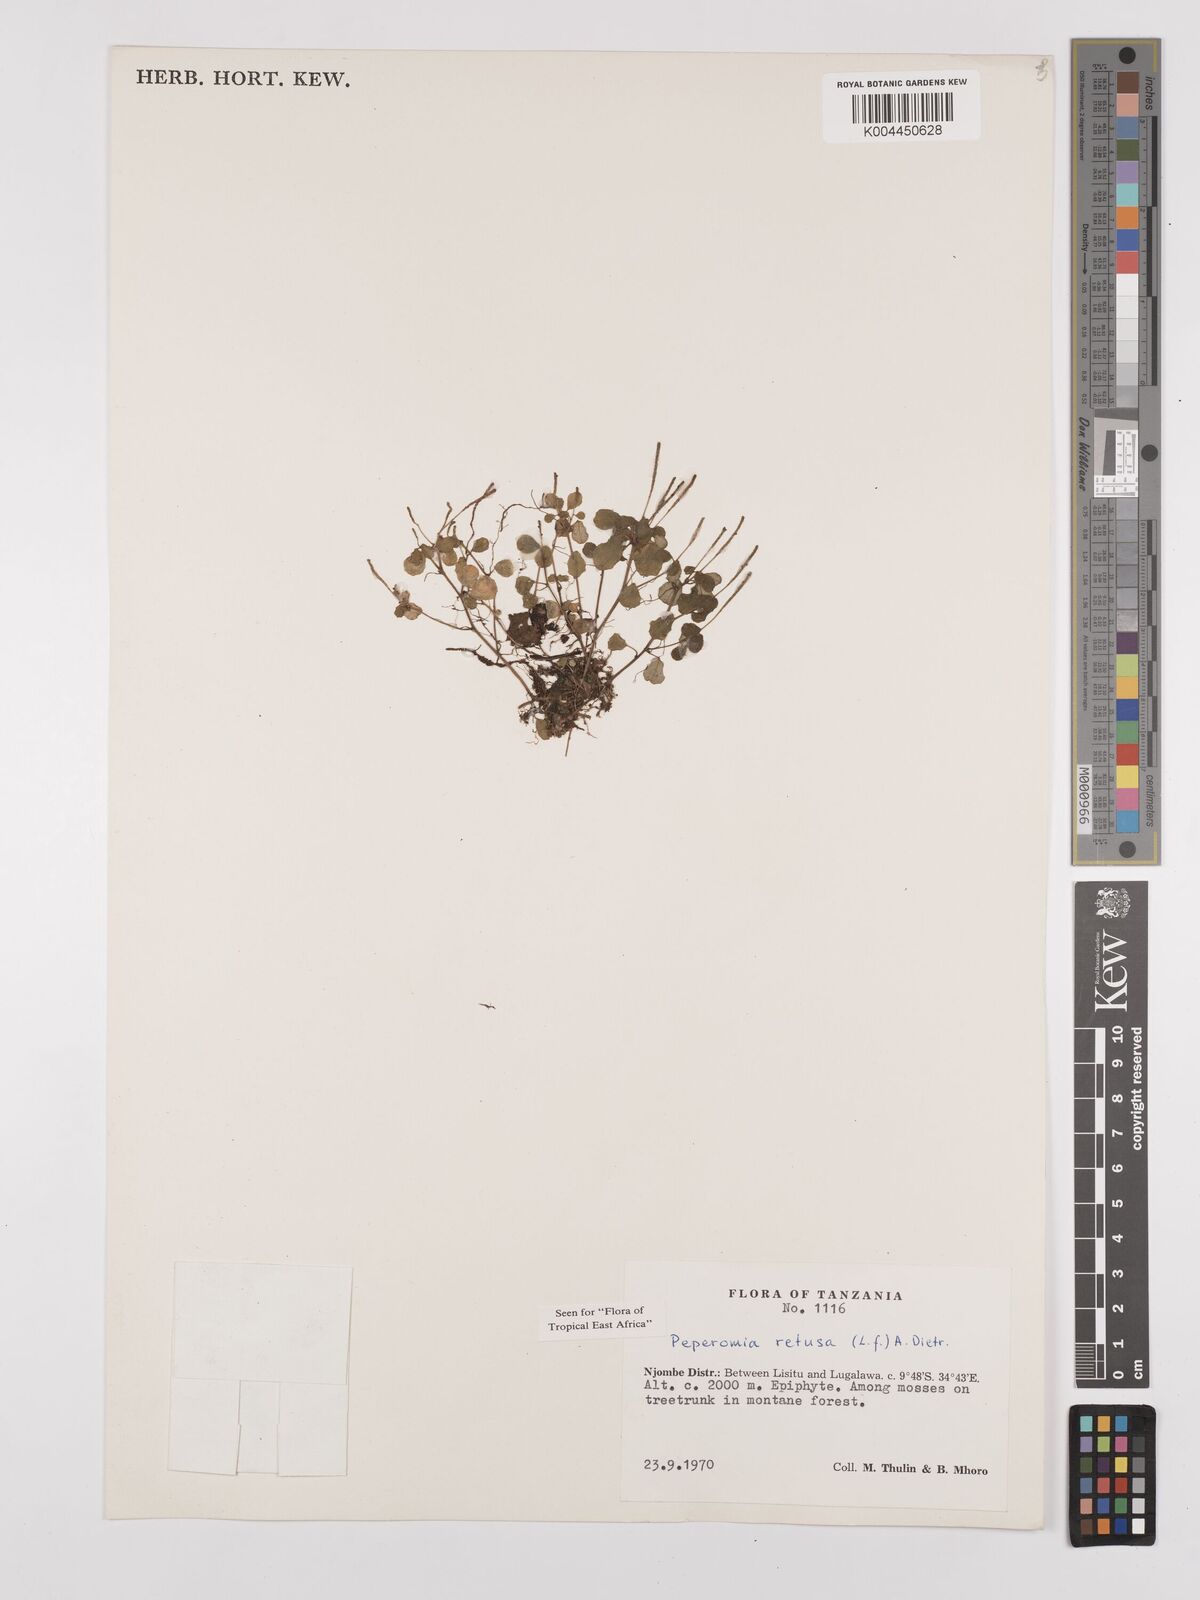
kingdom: Plantae
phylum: Tracheophyta
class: Magnoliopsida
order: Piperales
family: Piperaceae
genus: Peperomia
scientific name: Peperomia retusa
